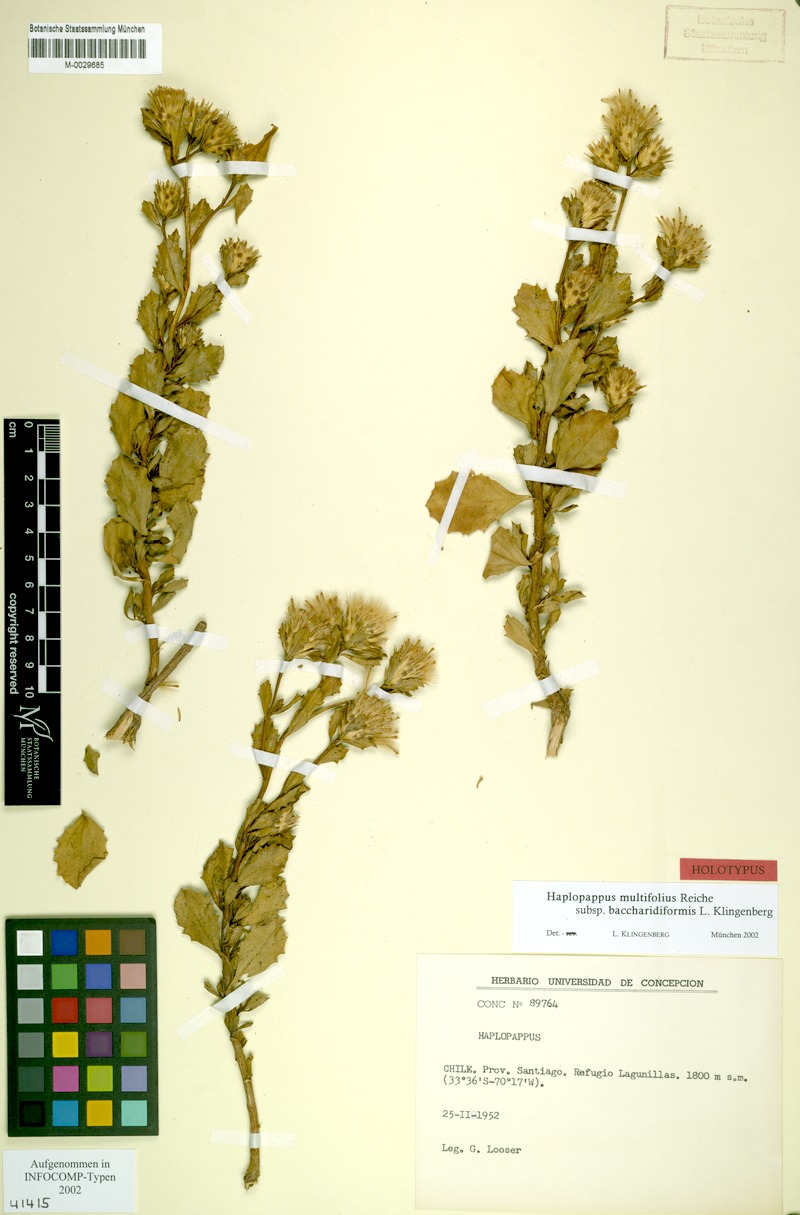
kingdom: Plantae
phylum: Tracheophyta
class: Magnoliopsida
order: Asterales
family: Asteraceae
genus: Haplopappus
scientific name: Haplopappus multifolius
